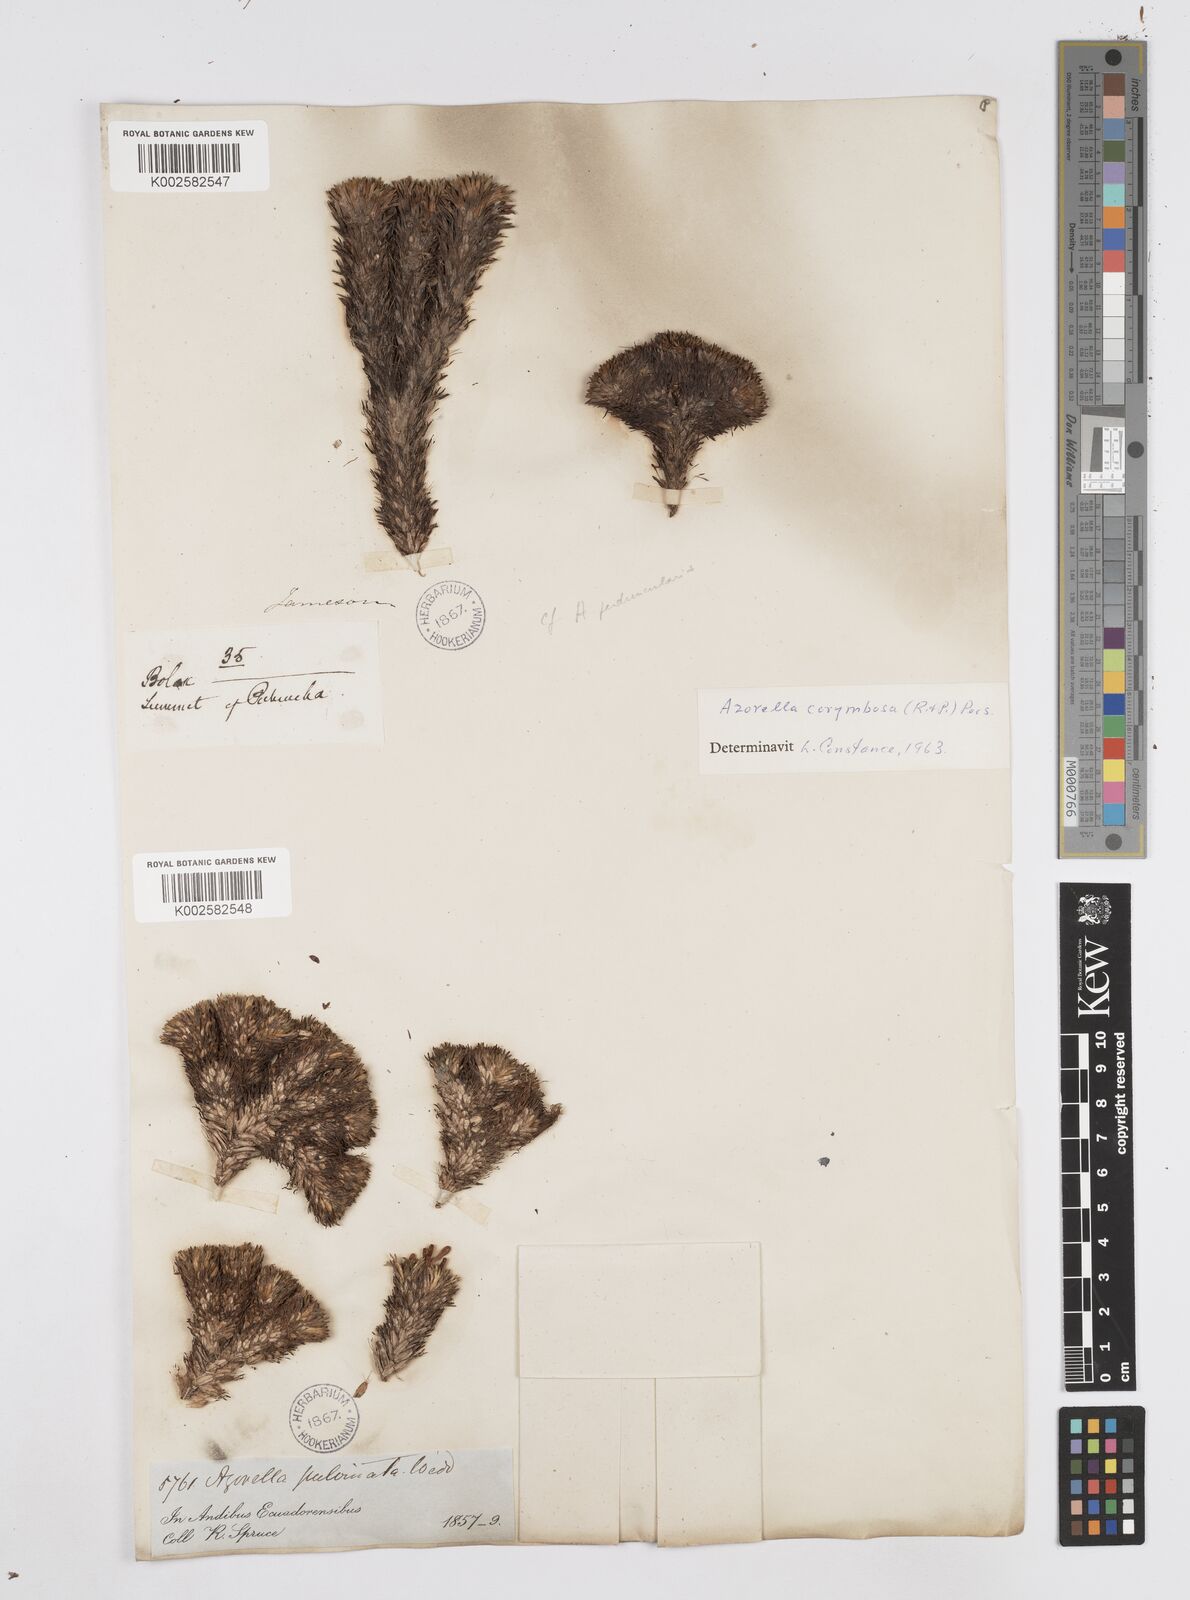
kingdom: Plantae
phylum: Tracheophyta
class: Magnoliopsida
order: Apiales
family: Apiaceae
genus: Azorella
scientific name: Azorella pulvinata
